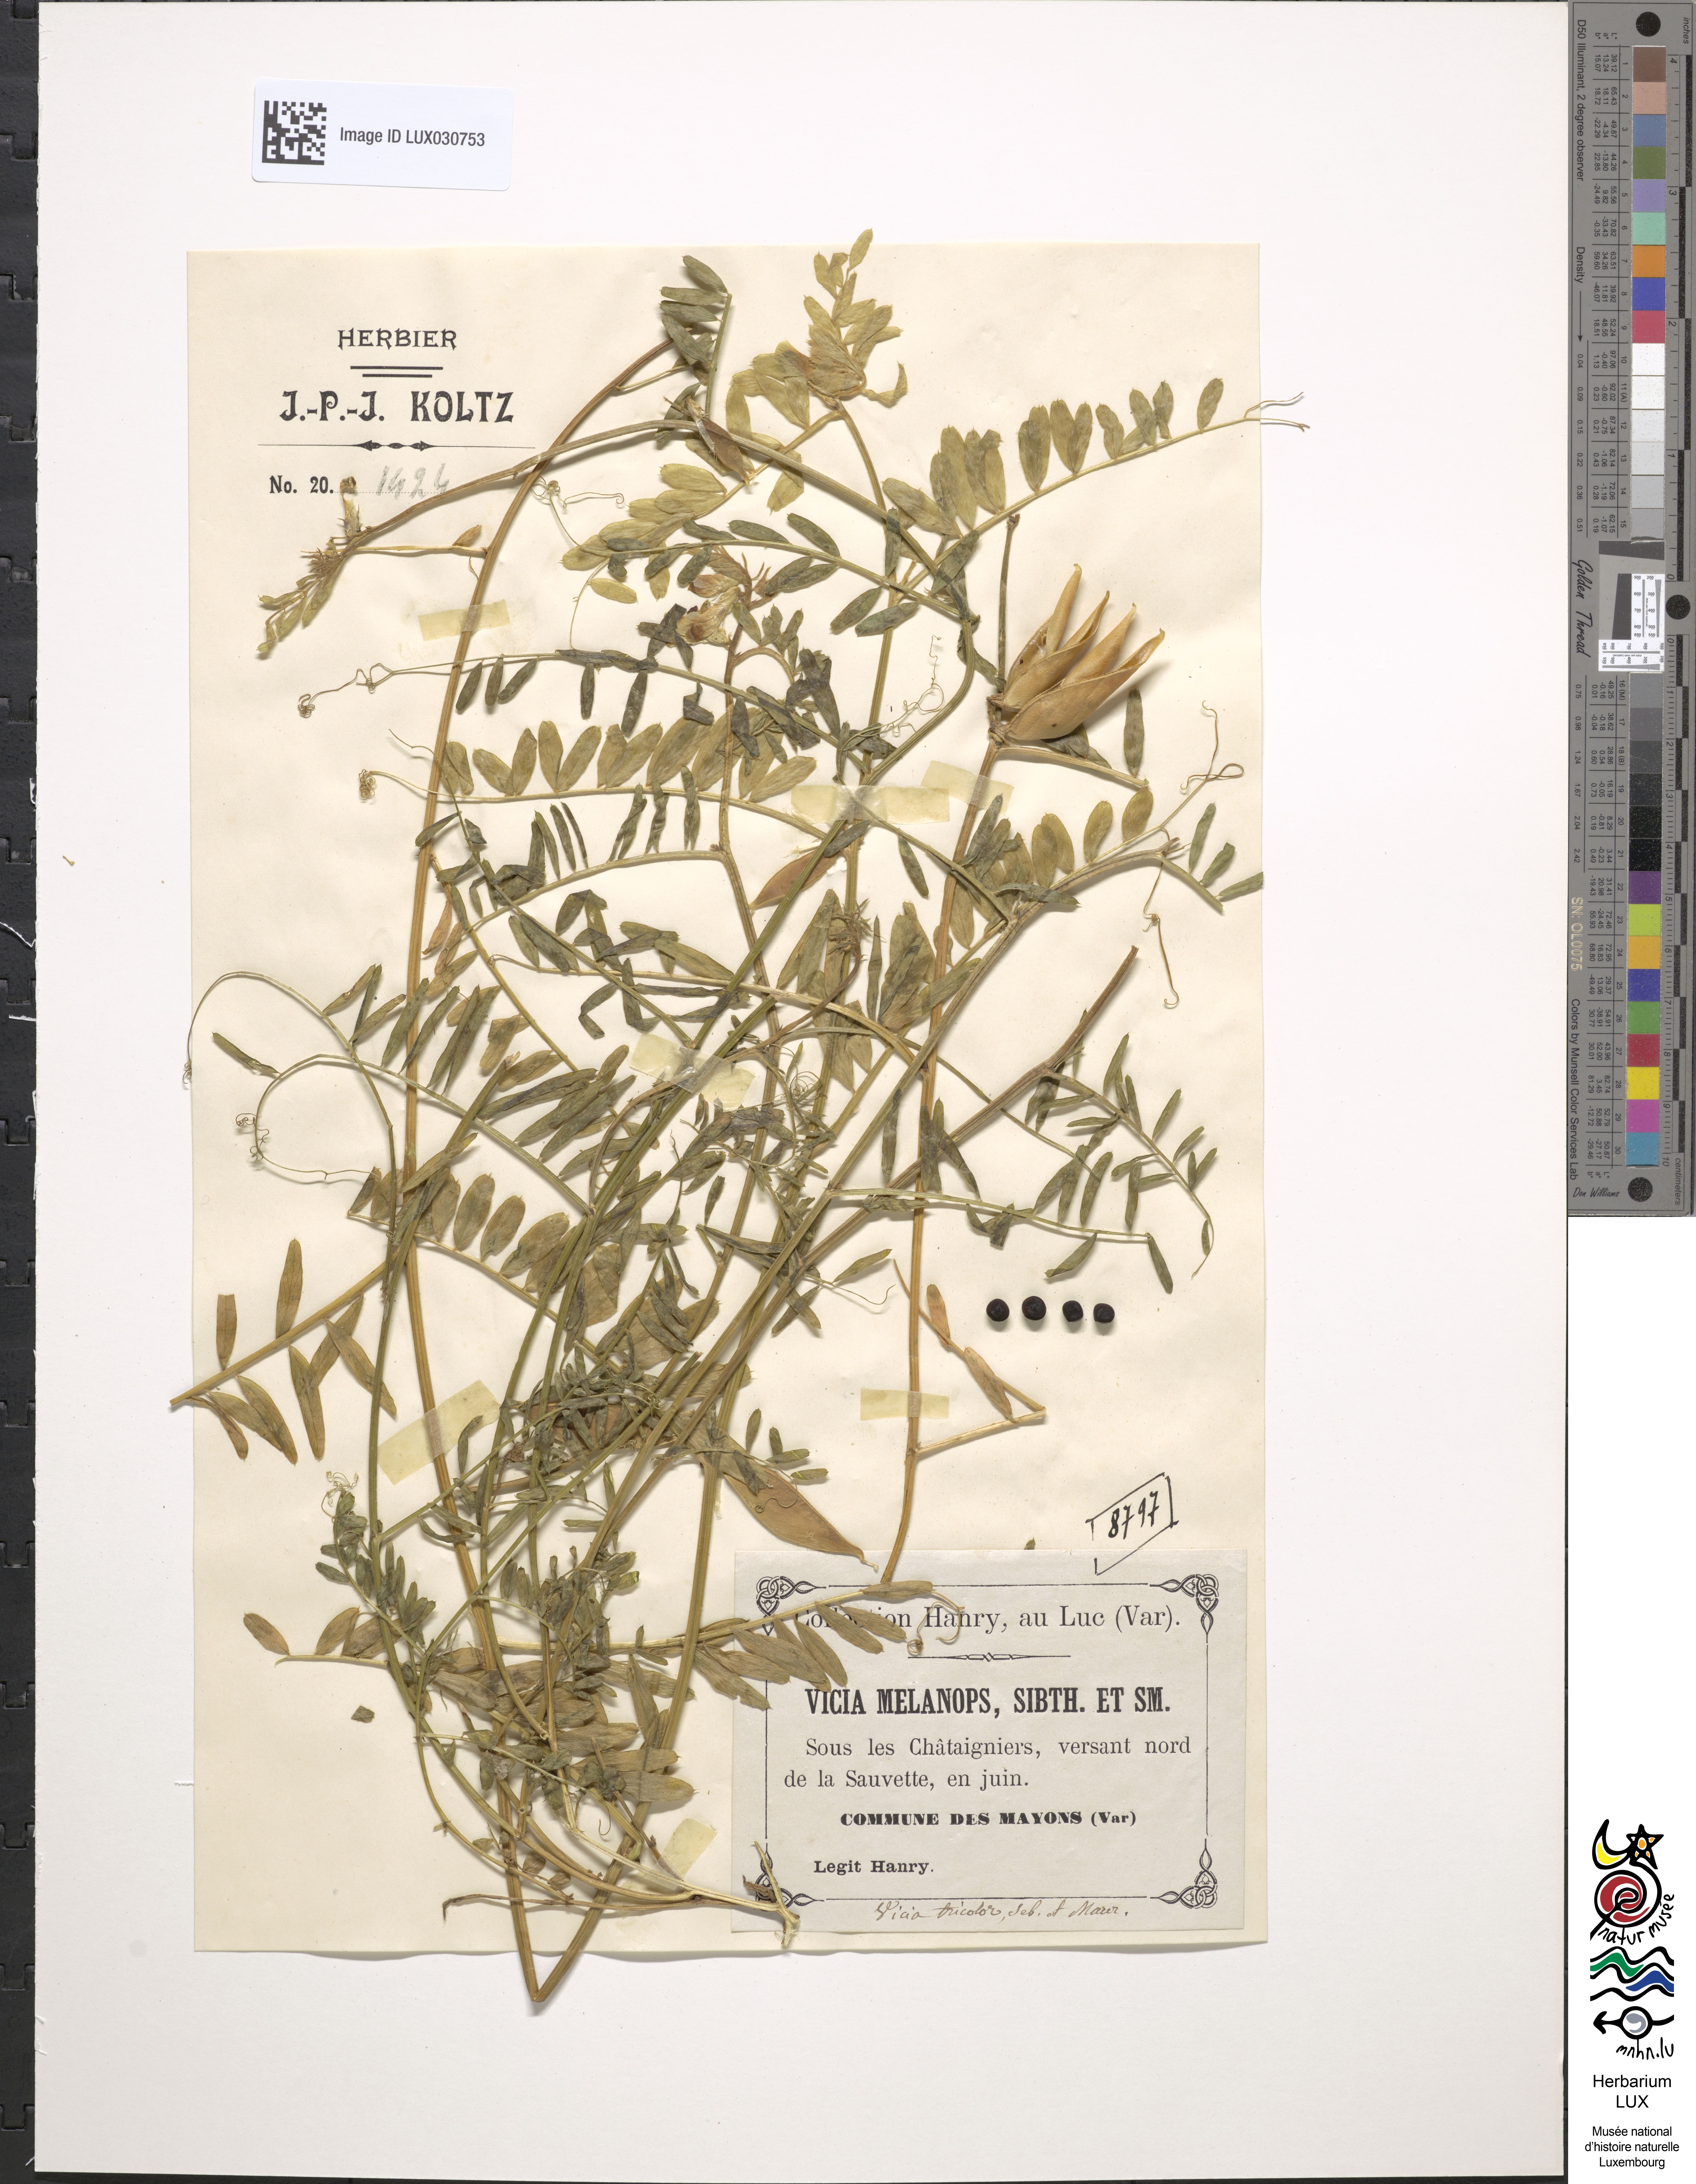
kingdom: Plantae
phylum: Tracheophyta
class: Magnoliopsida
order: Fabales
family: Fabaceae
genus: Vicia
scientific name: Vicia melanops
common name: Black-eyed vetch
